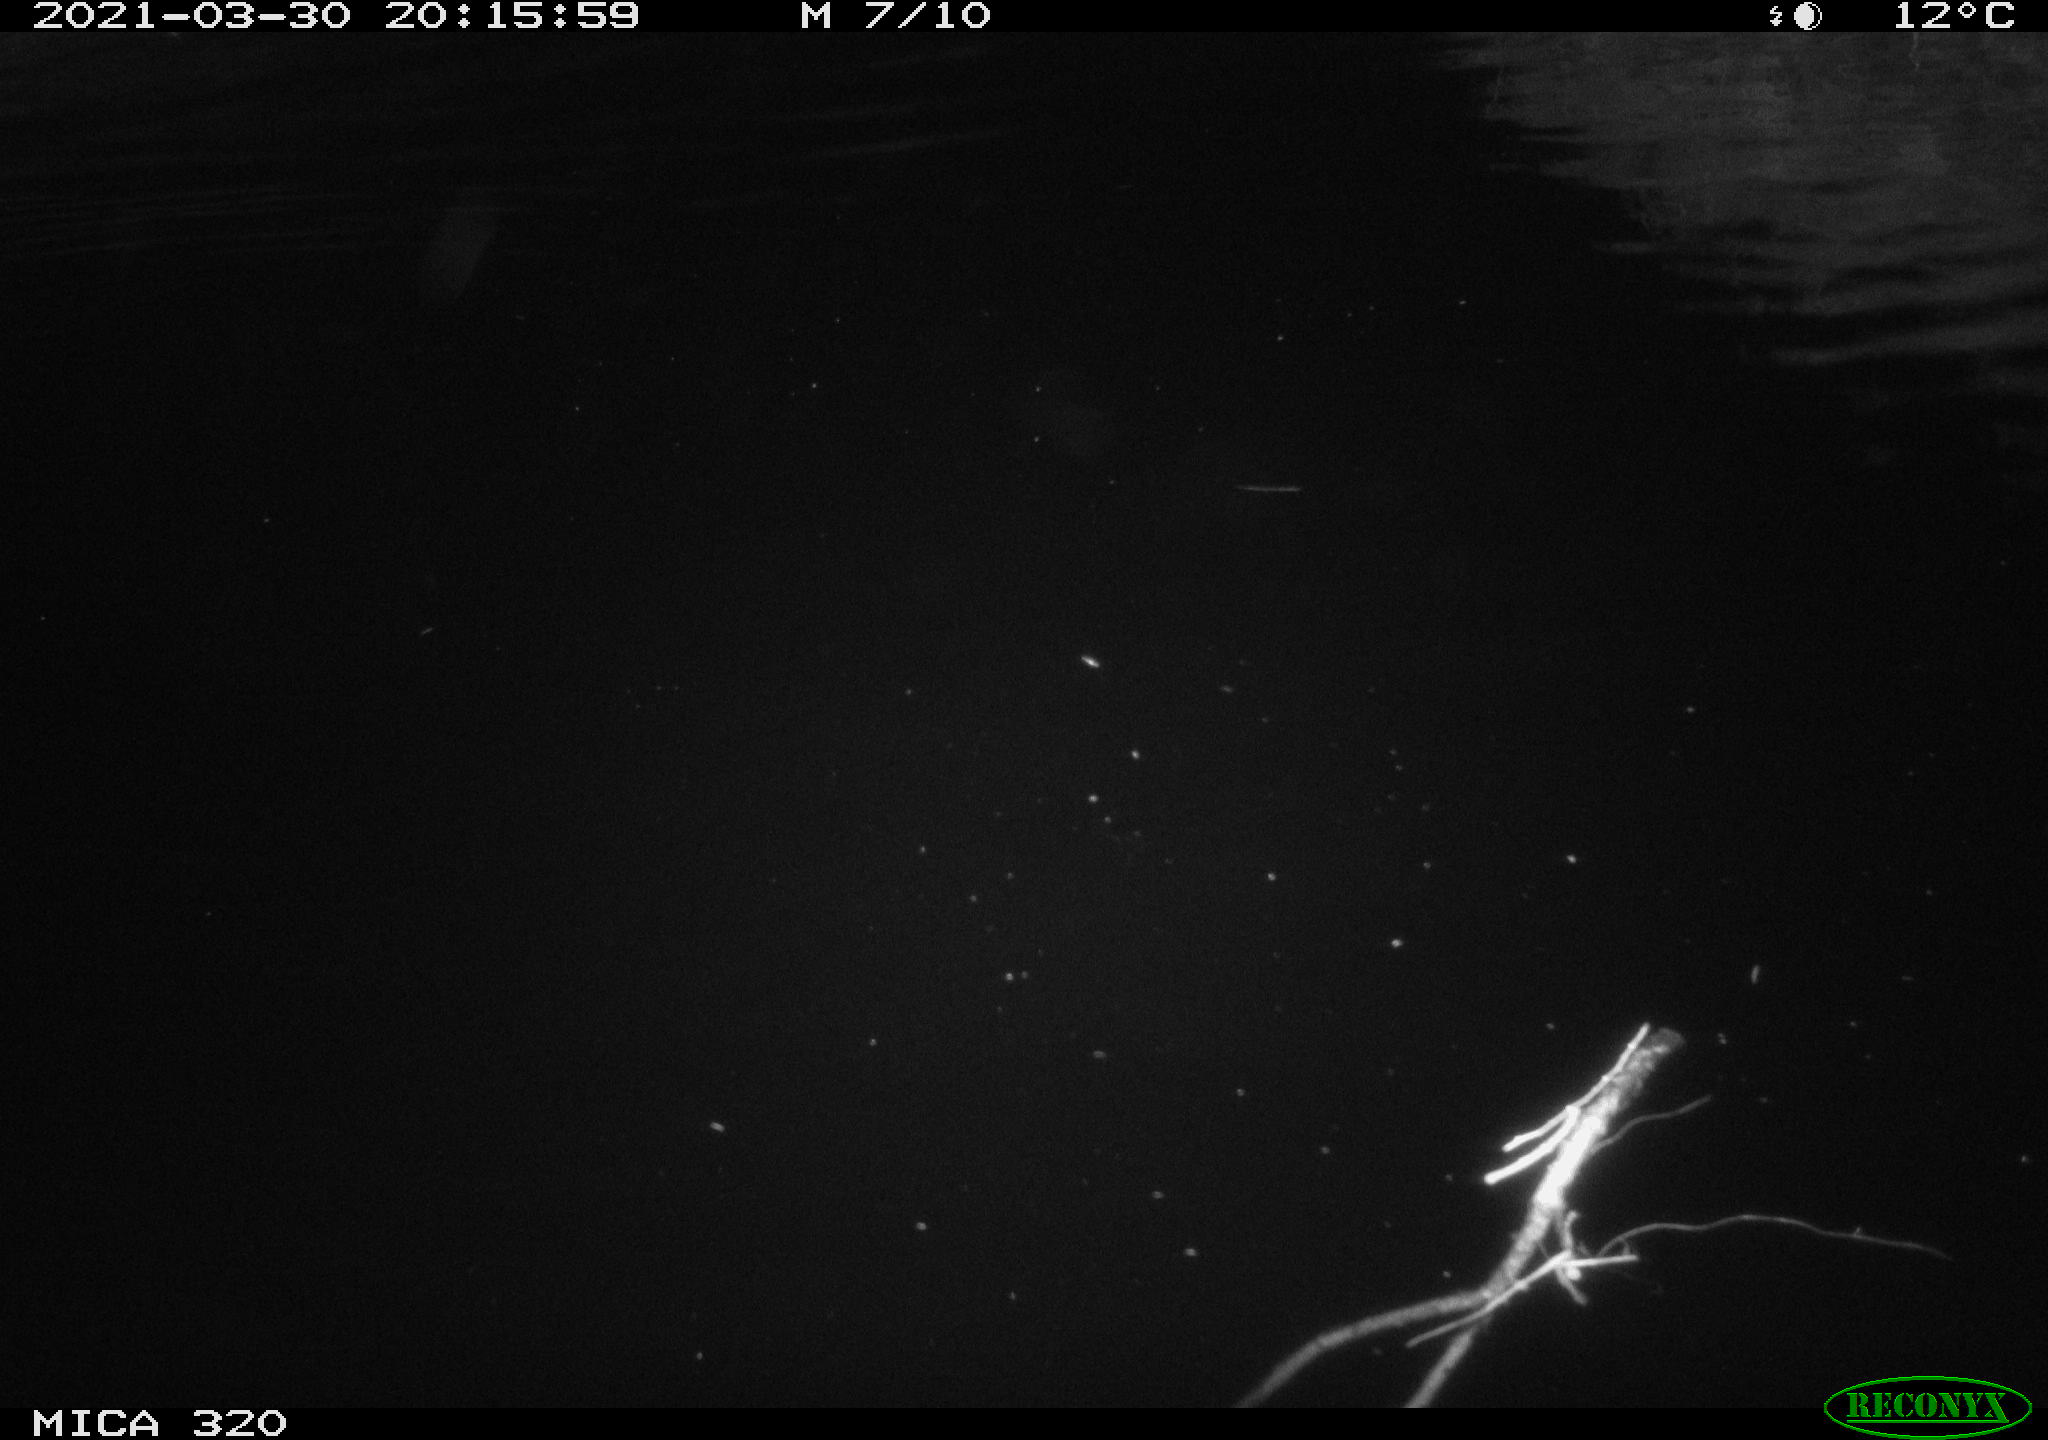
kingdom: Animalia
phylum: Chordata
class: Aves
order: Anseriformes
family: Anatidae
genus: Anas
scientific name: Anas platyrhynchos
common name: Mallard
